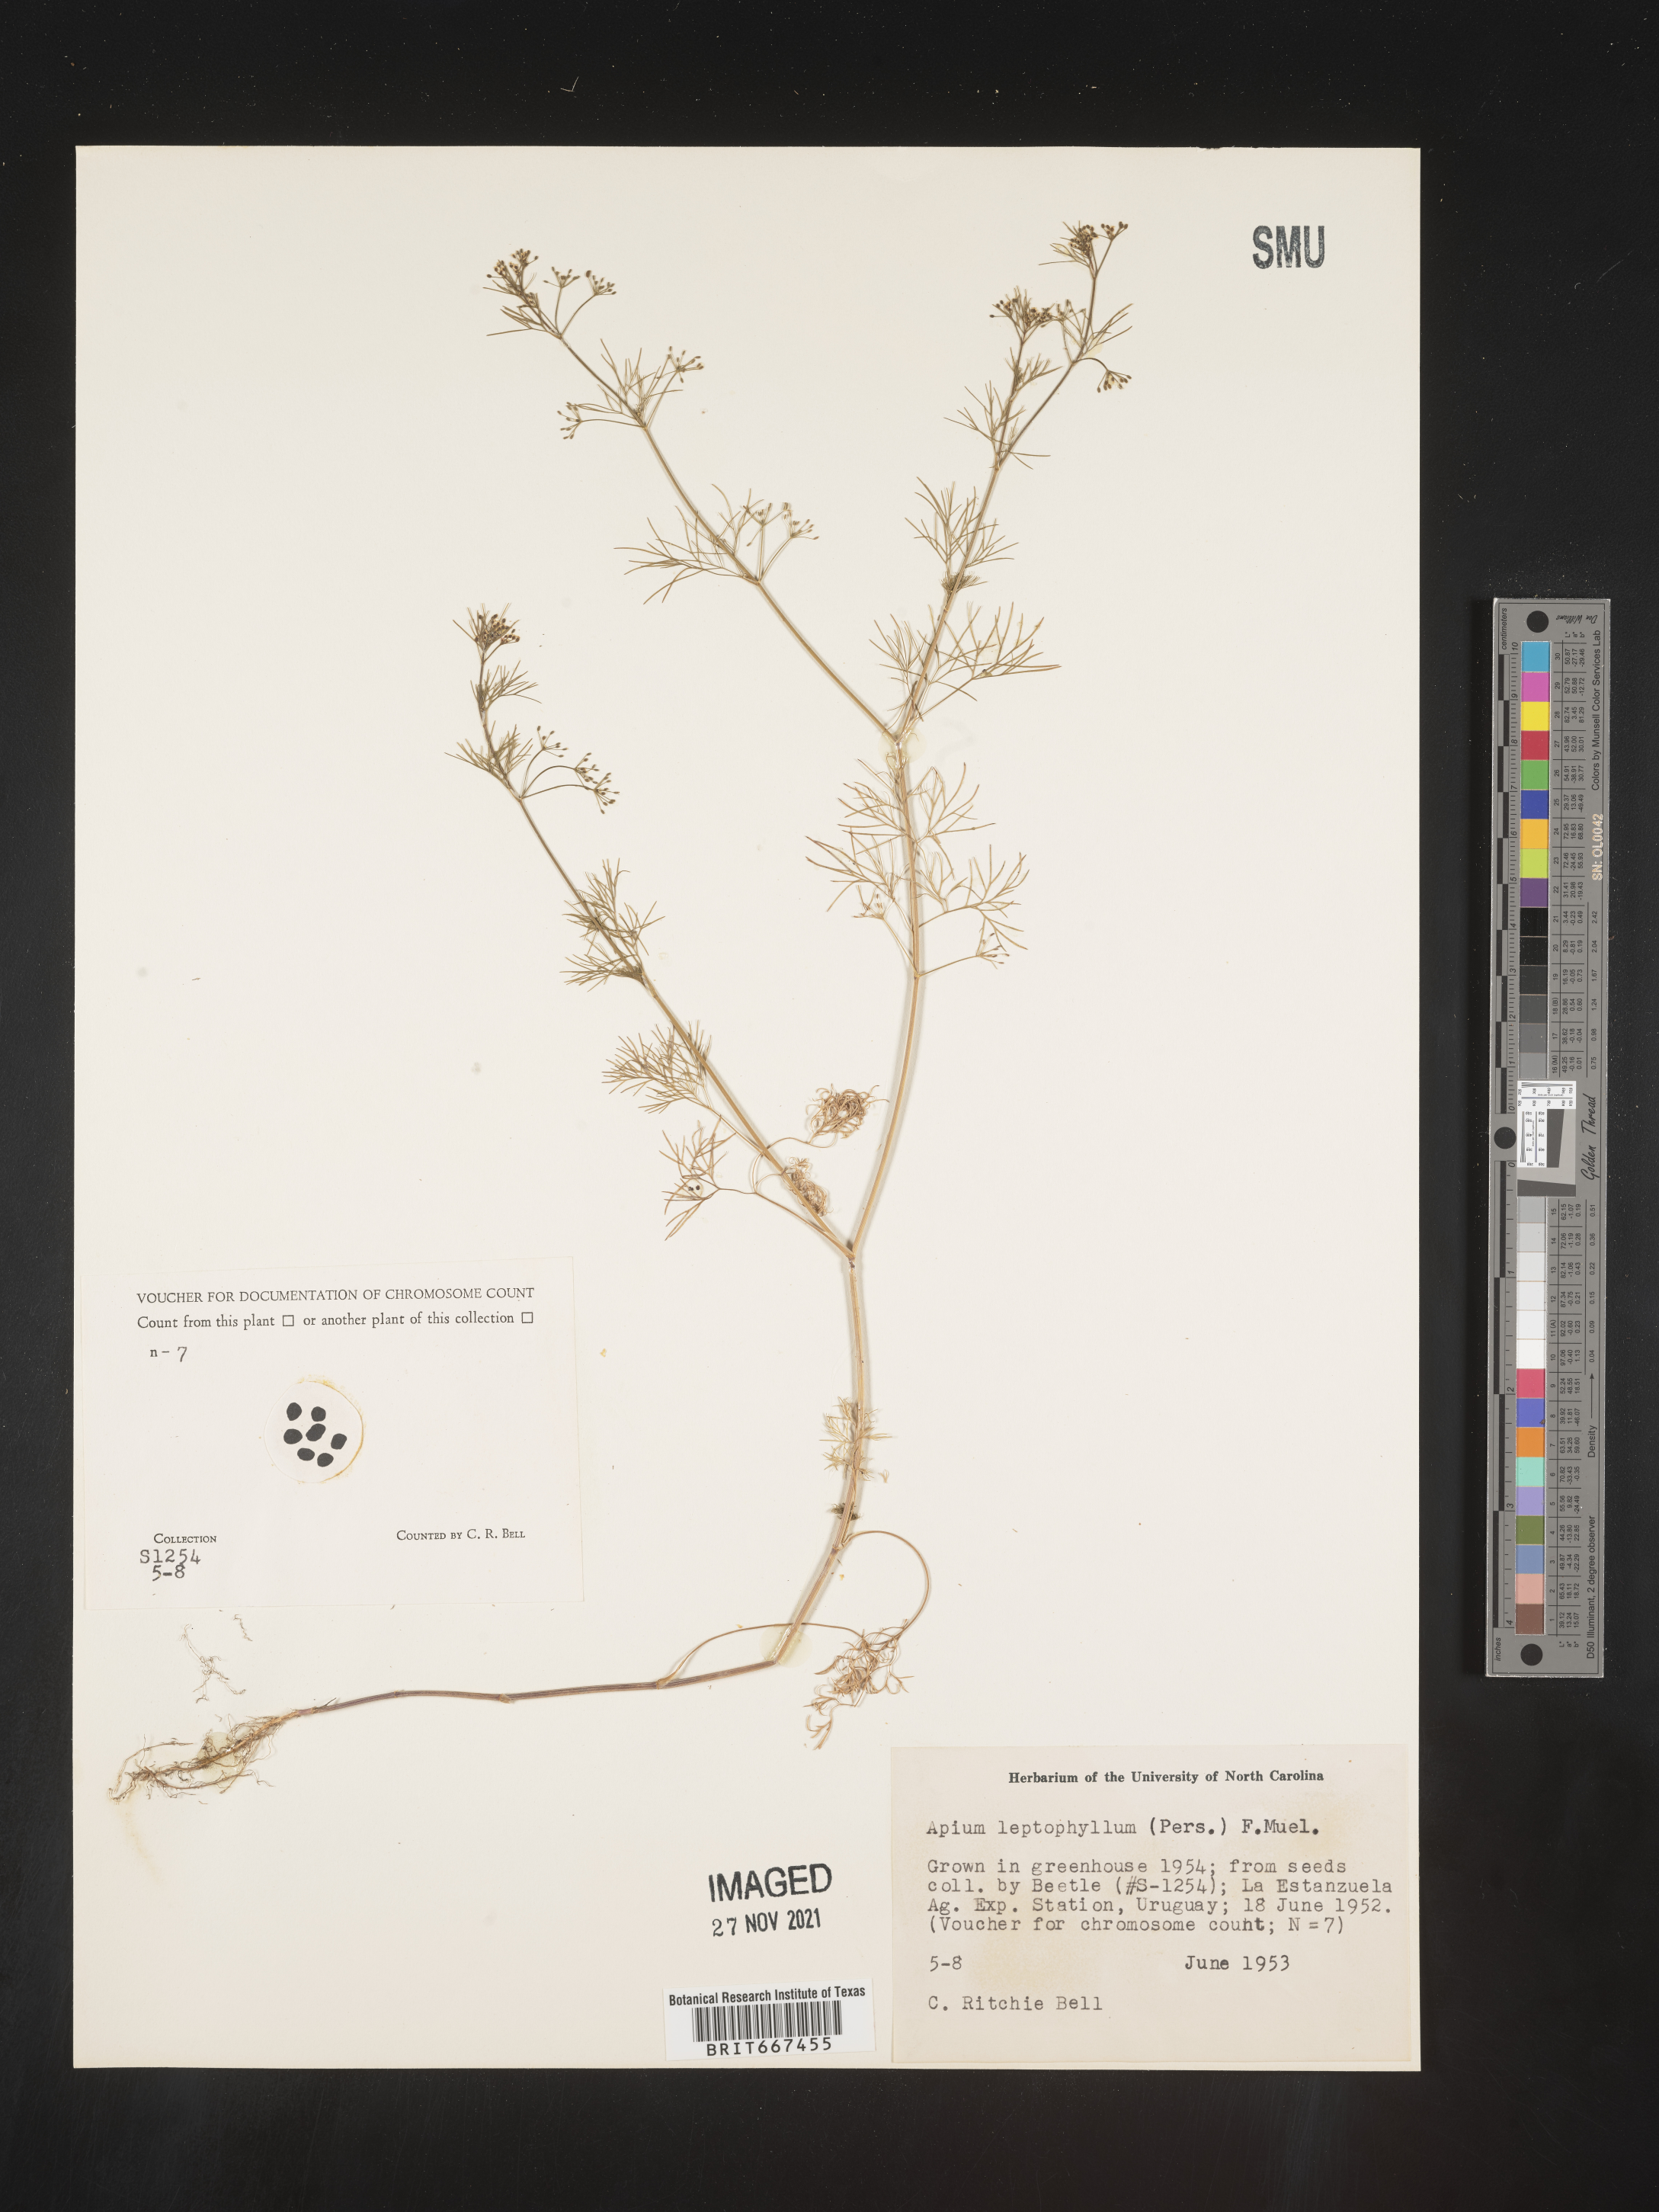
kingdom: Plantae
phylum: Tracheophyta
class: Magnoliopsida
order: Apiales
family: Apiaceae
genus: Apium
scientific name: Apium
